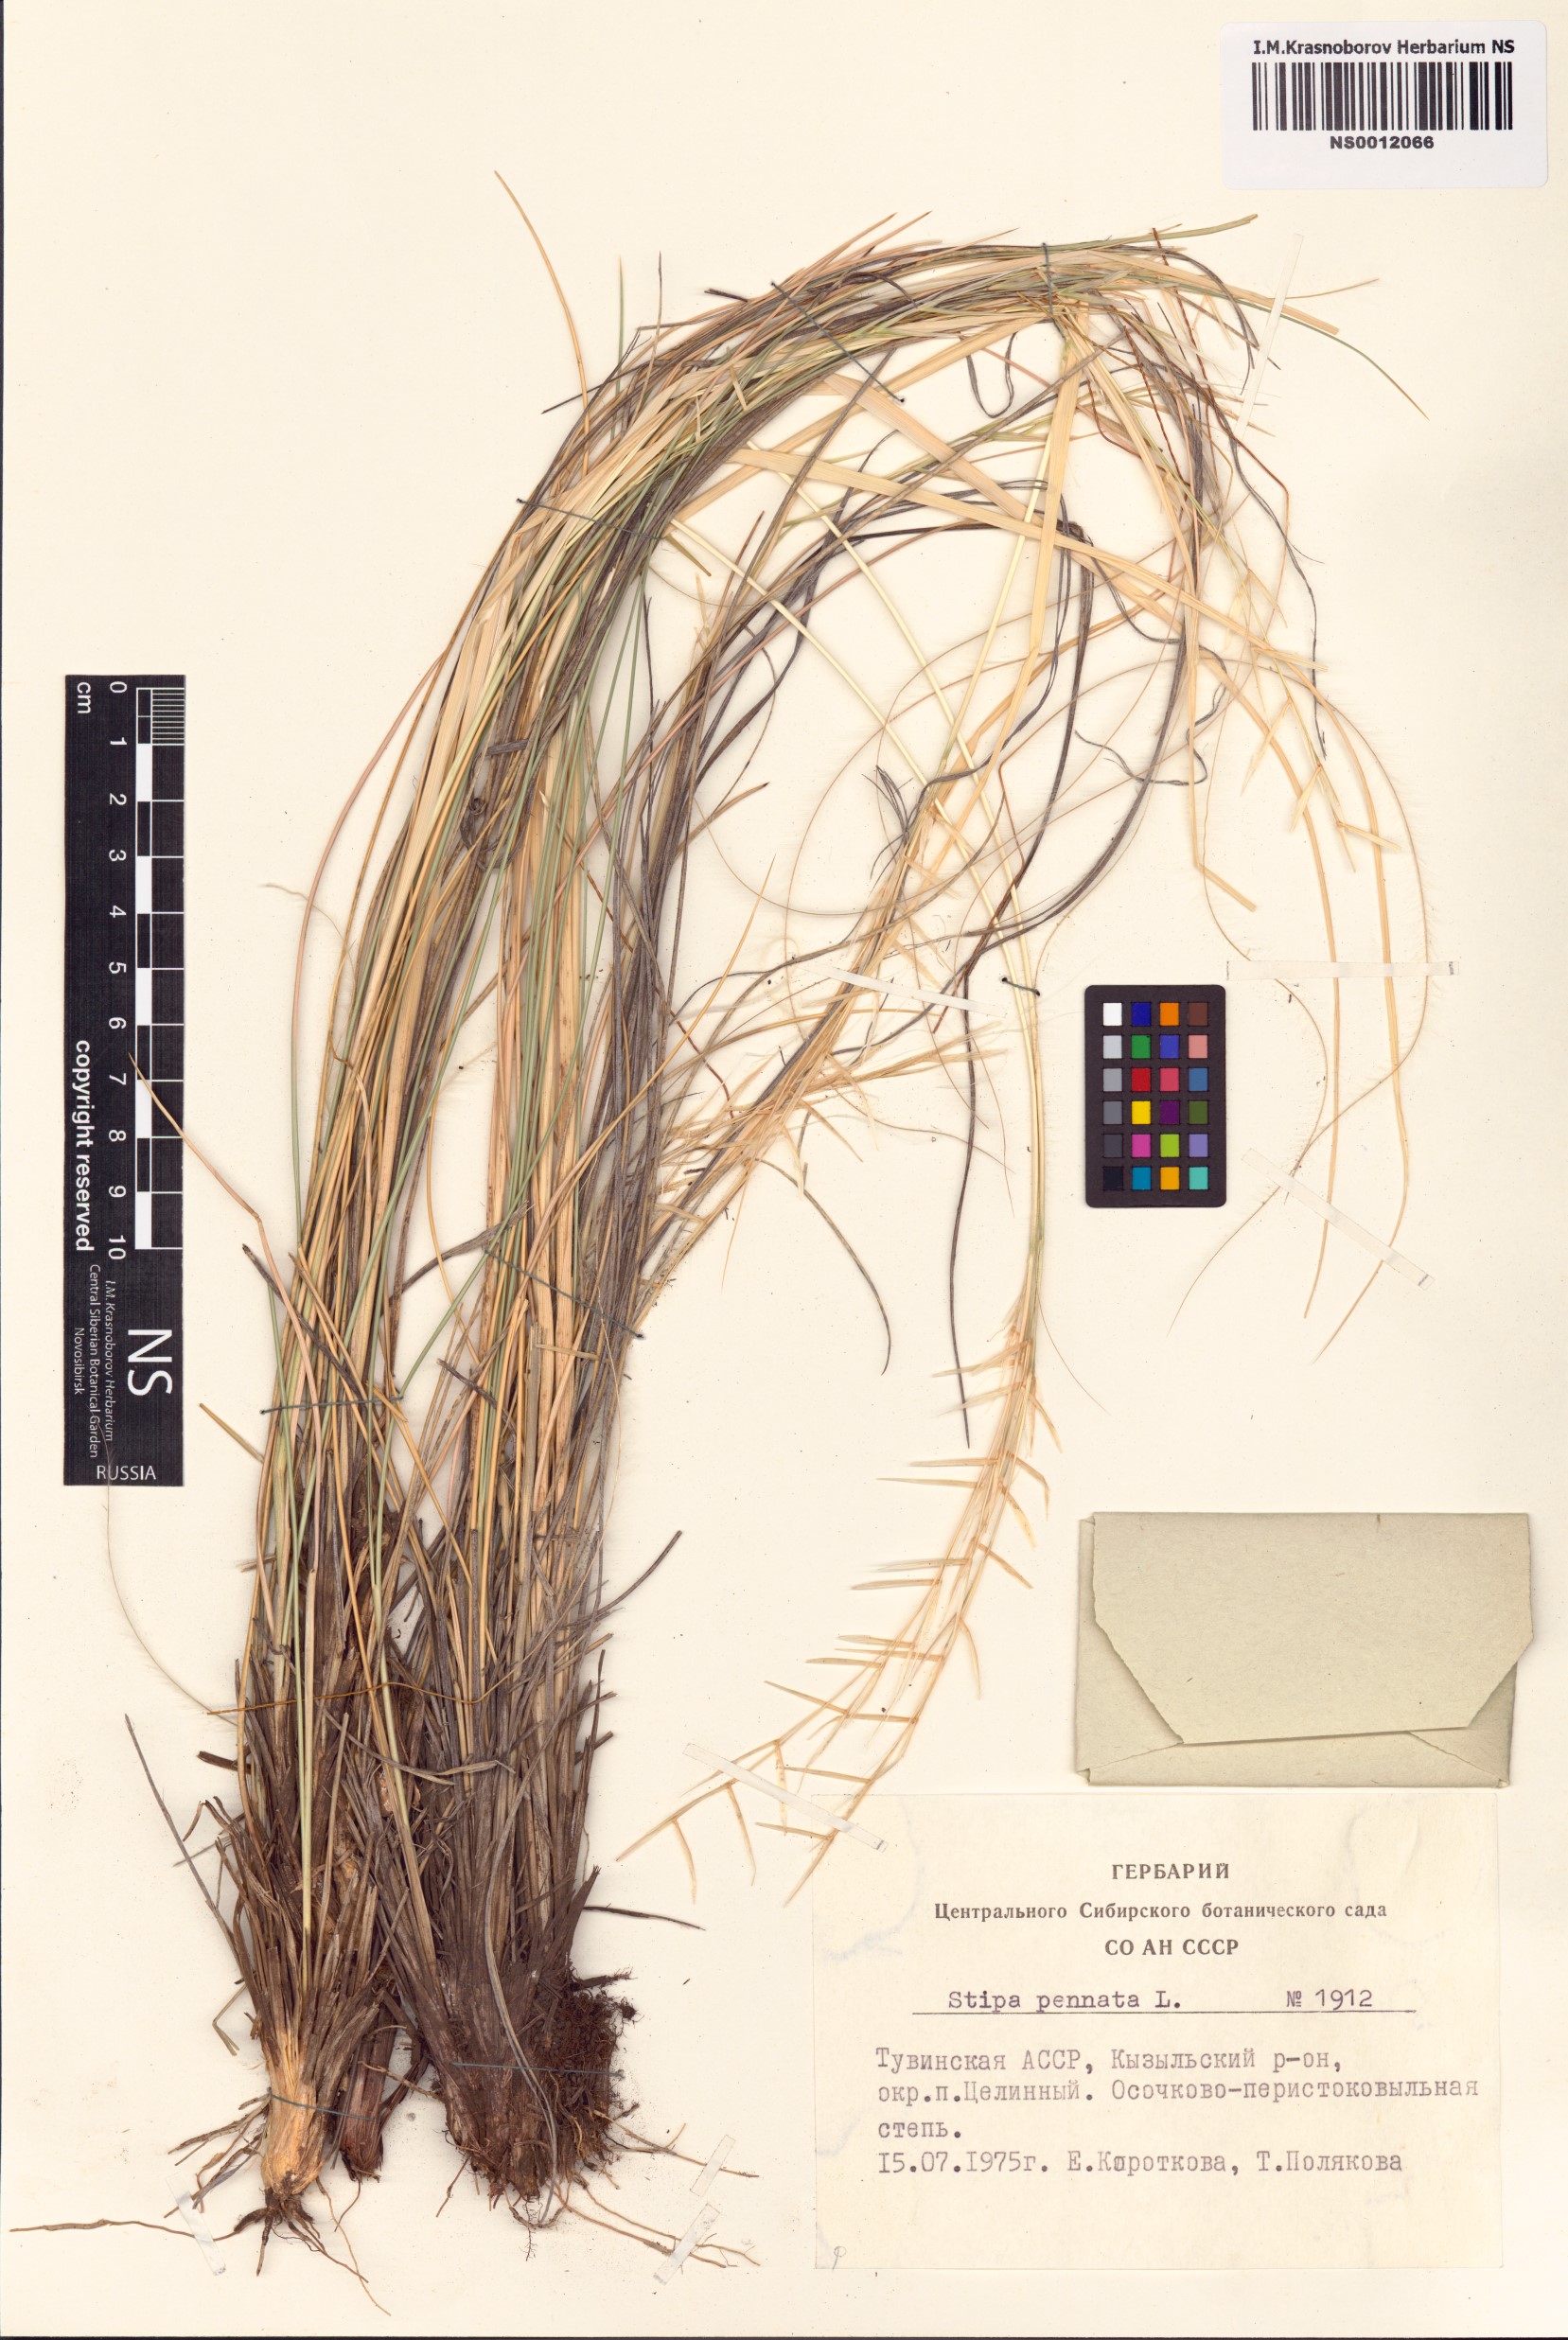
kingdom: Plantae
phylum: Tracheophyta
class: Liliopsida
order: Poales
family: Poaceae
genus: Stipa
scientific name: Stipa pennata
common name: European feather grass
